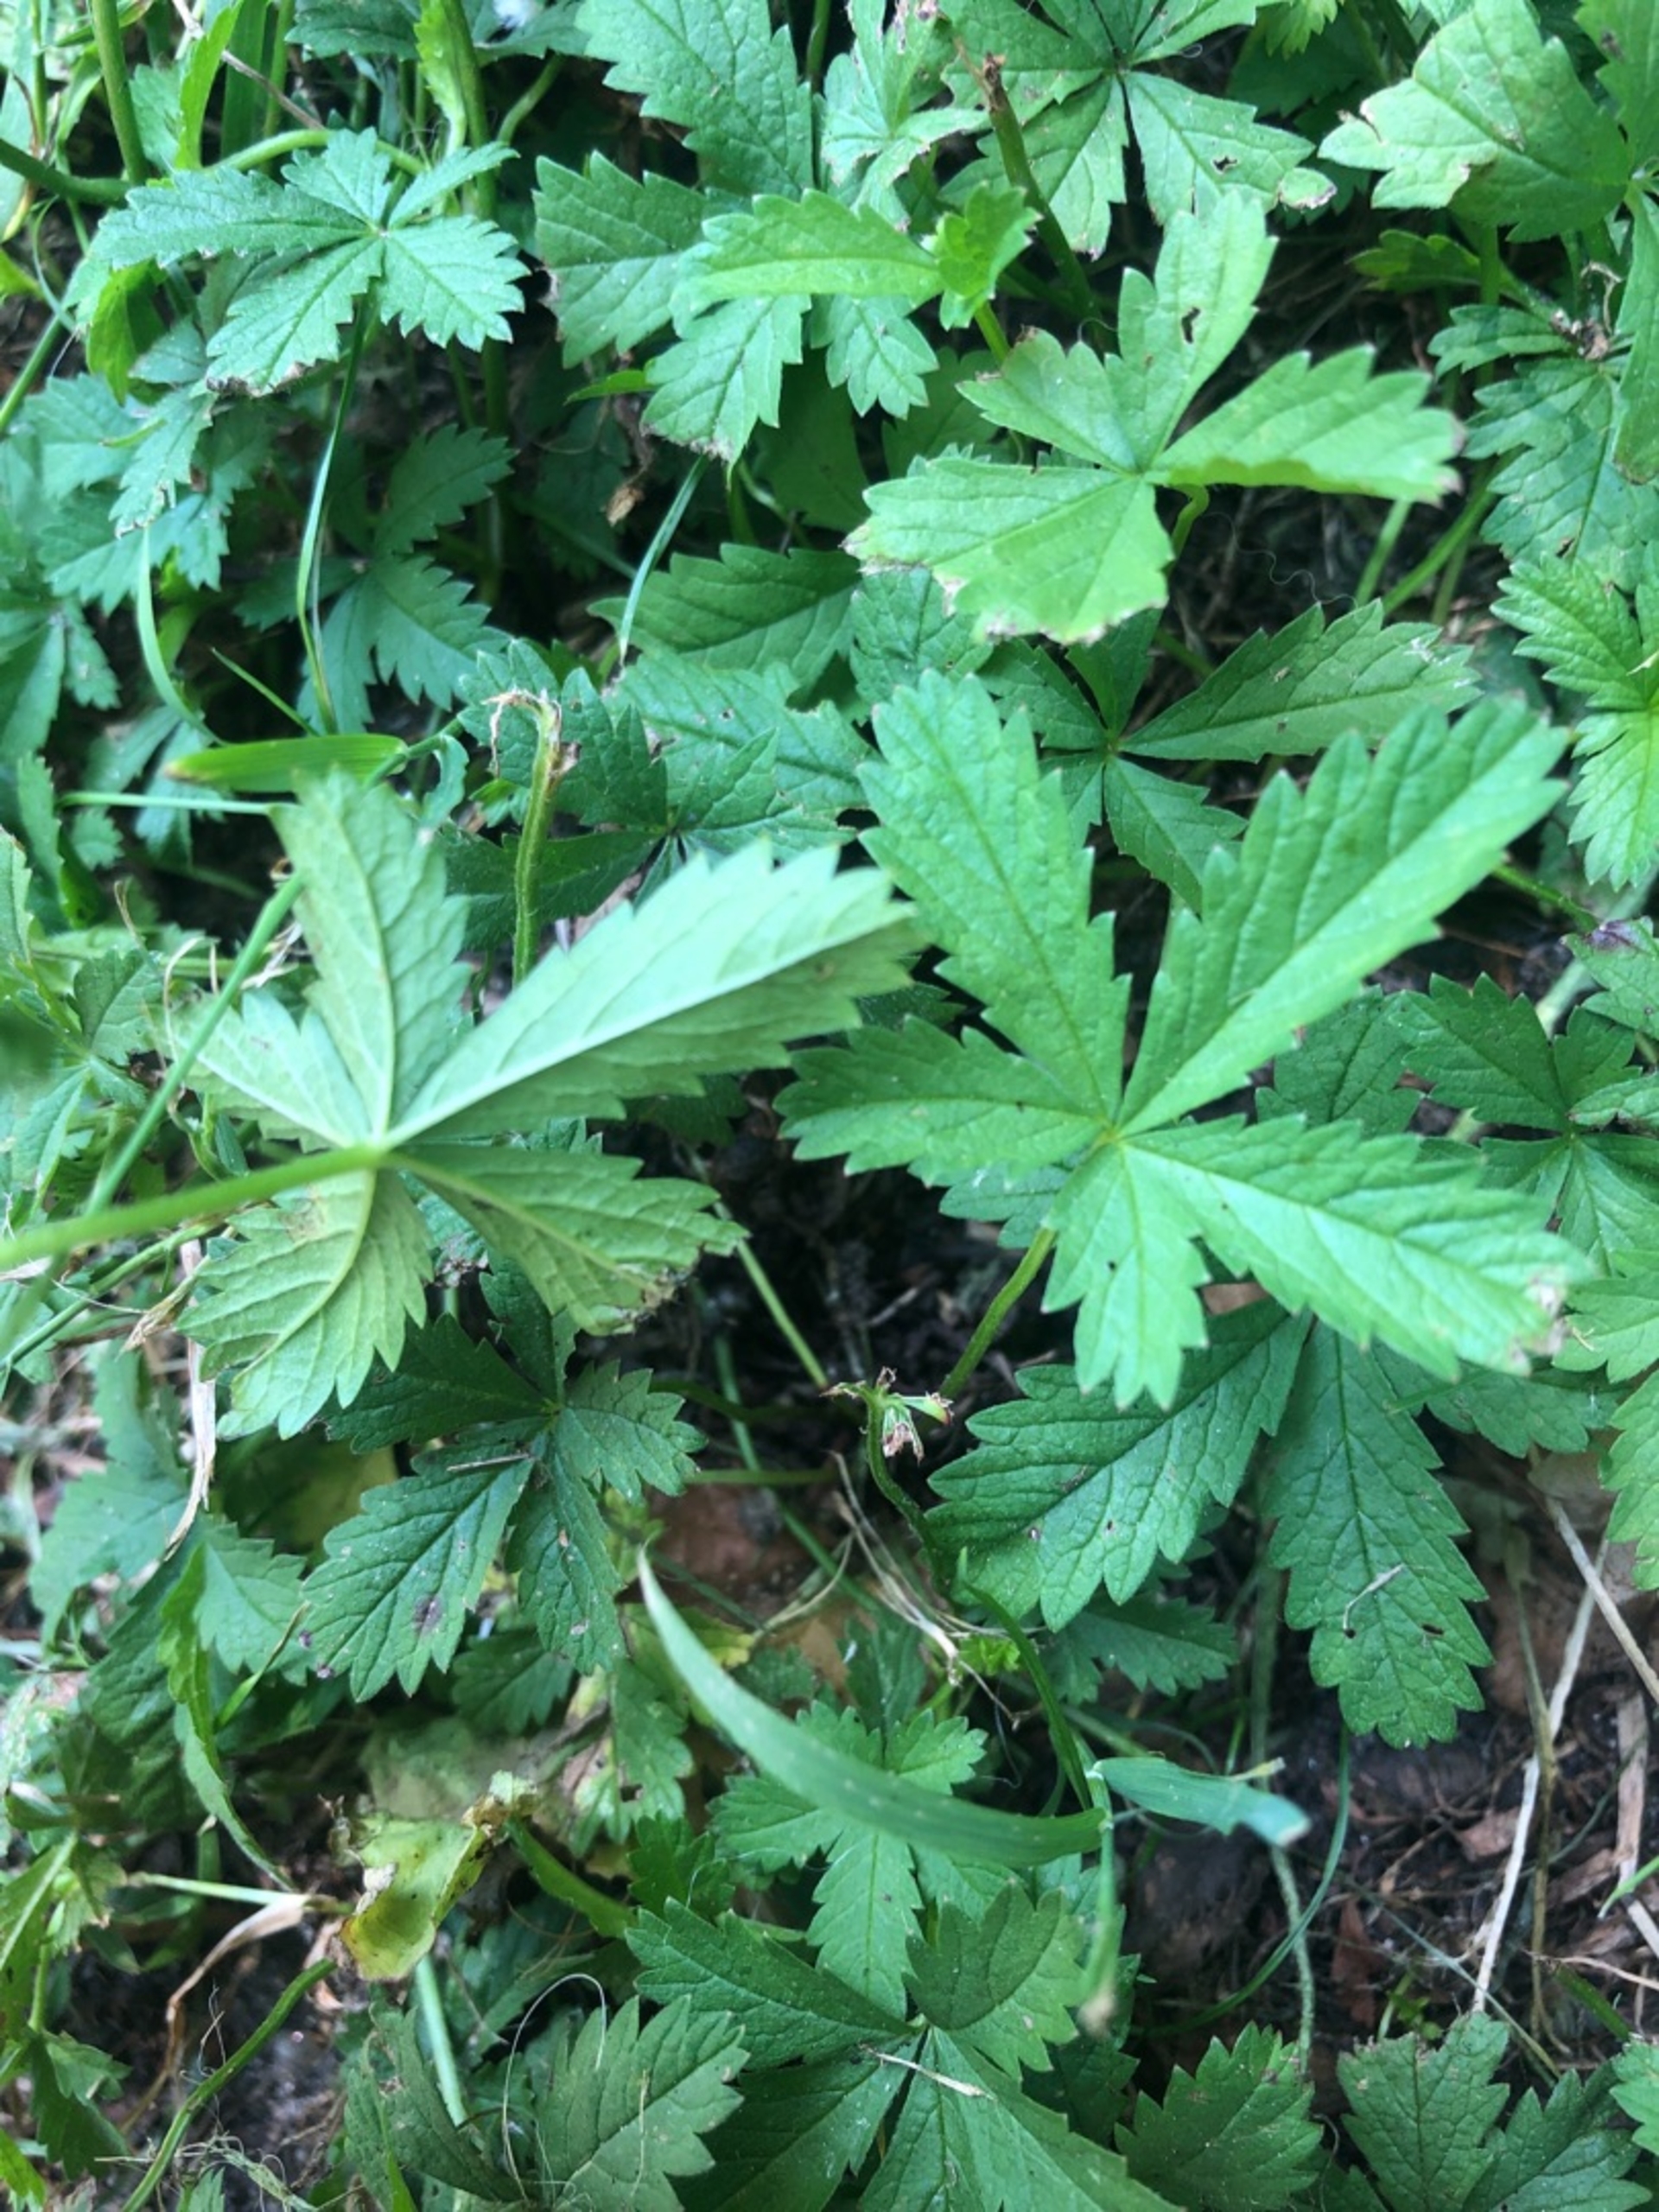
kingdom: Plantae
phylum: Tracheophyta
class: Magnoliopsida
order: Rosales
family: Rosaceae
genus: Potentilla
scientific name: Potentilla reptans
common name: Krybende potentil
